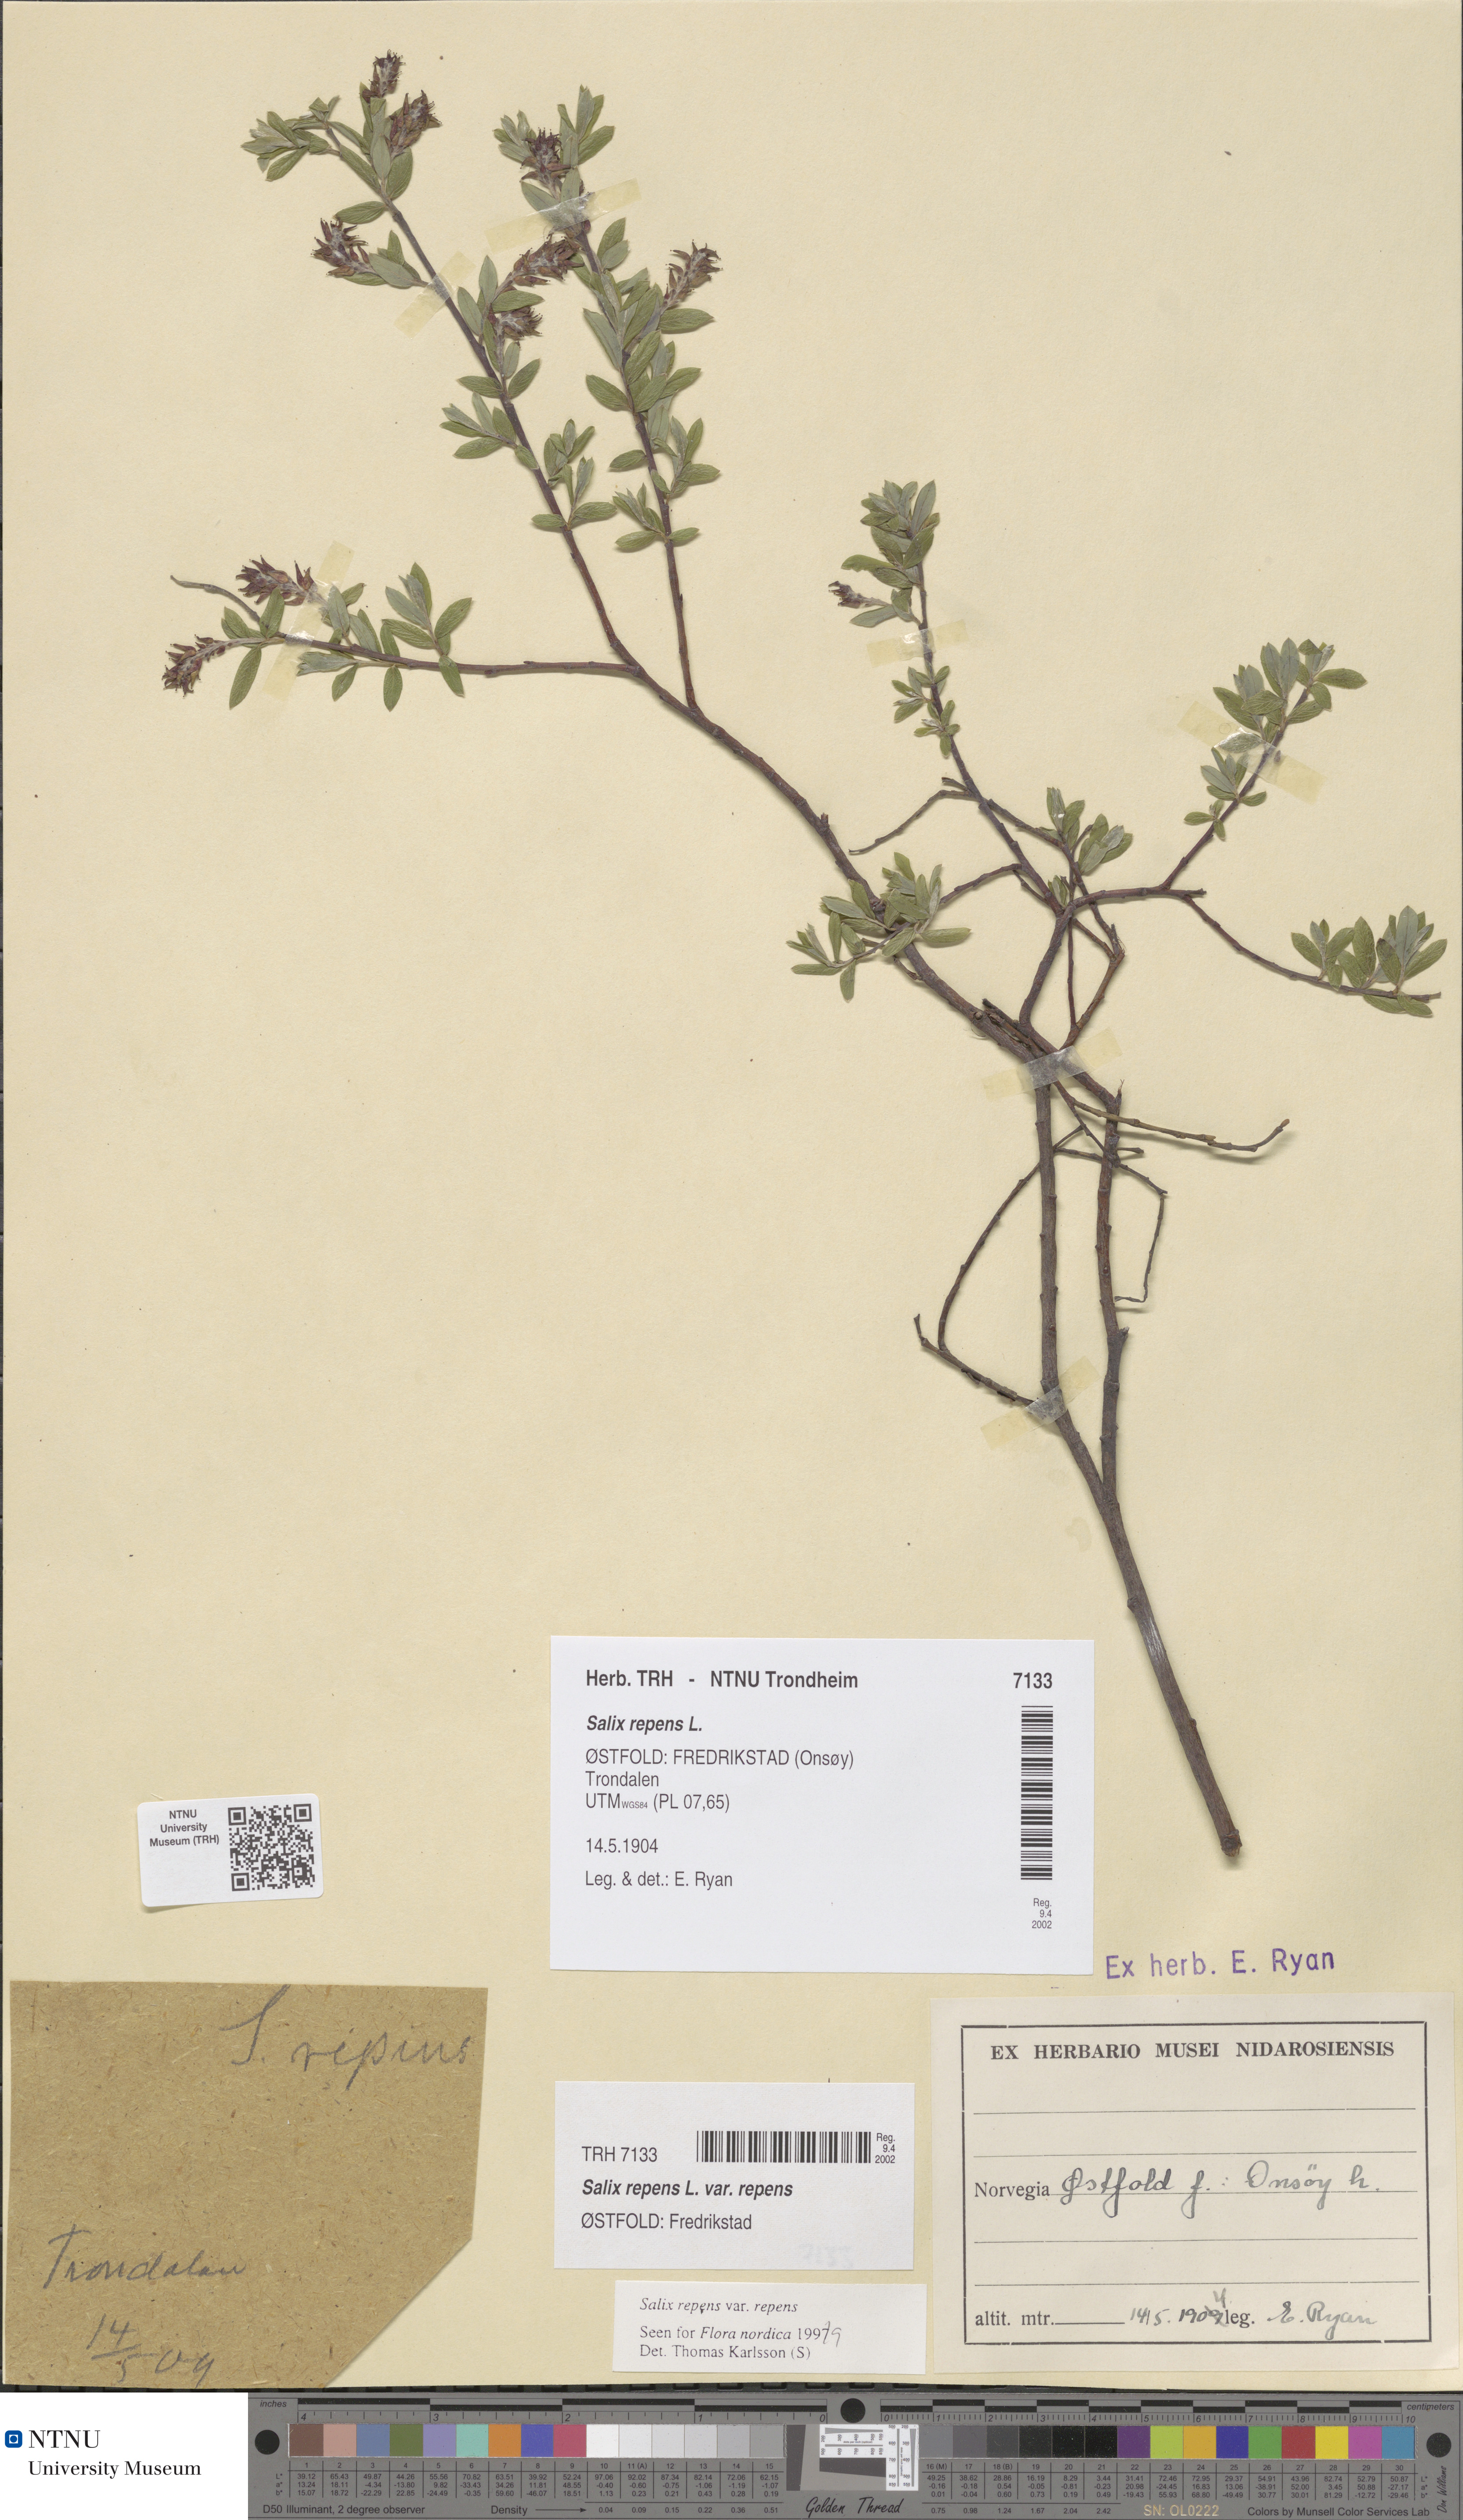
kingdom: Plantae
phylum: Tracheophyta
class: Magnoliopsida
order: Malpighiales
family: Salicaceae
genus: Salix
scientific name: Salix repens
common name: Creeping willow
